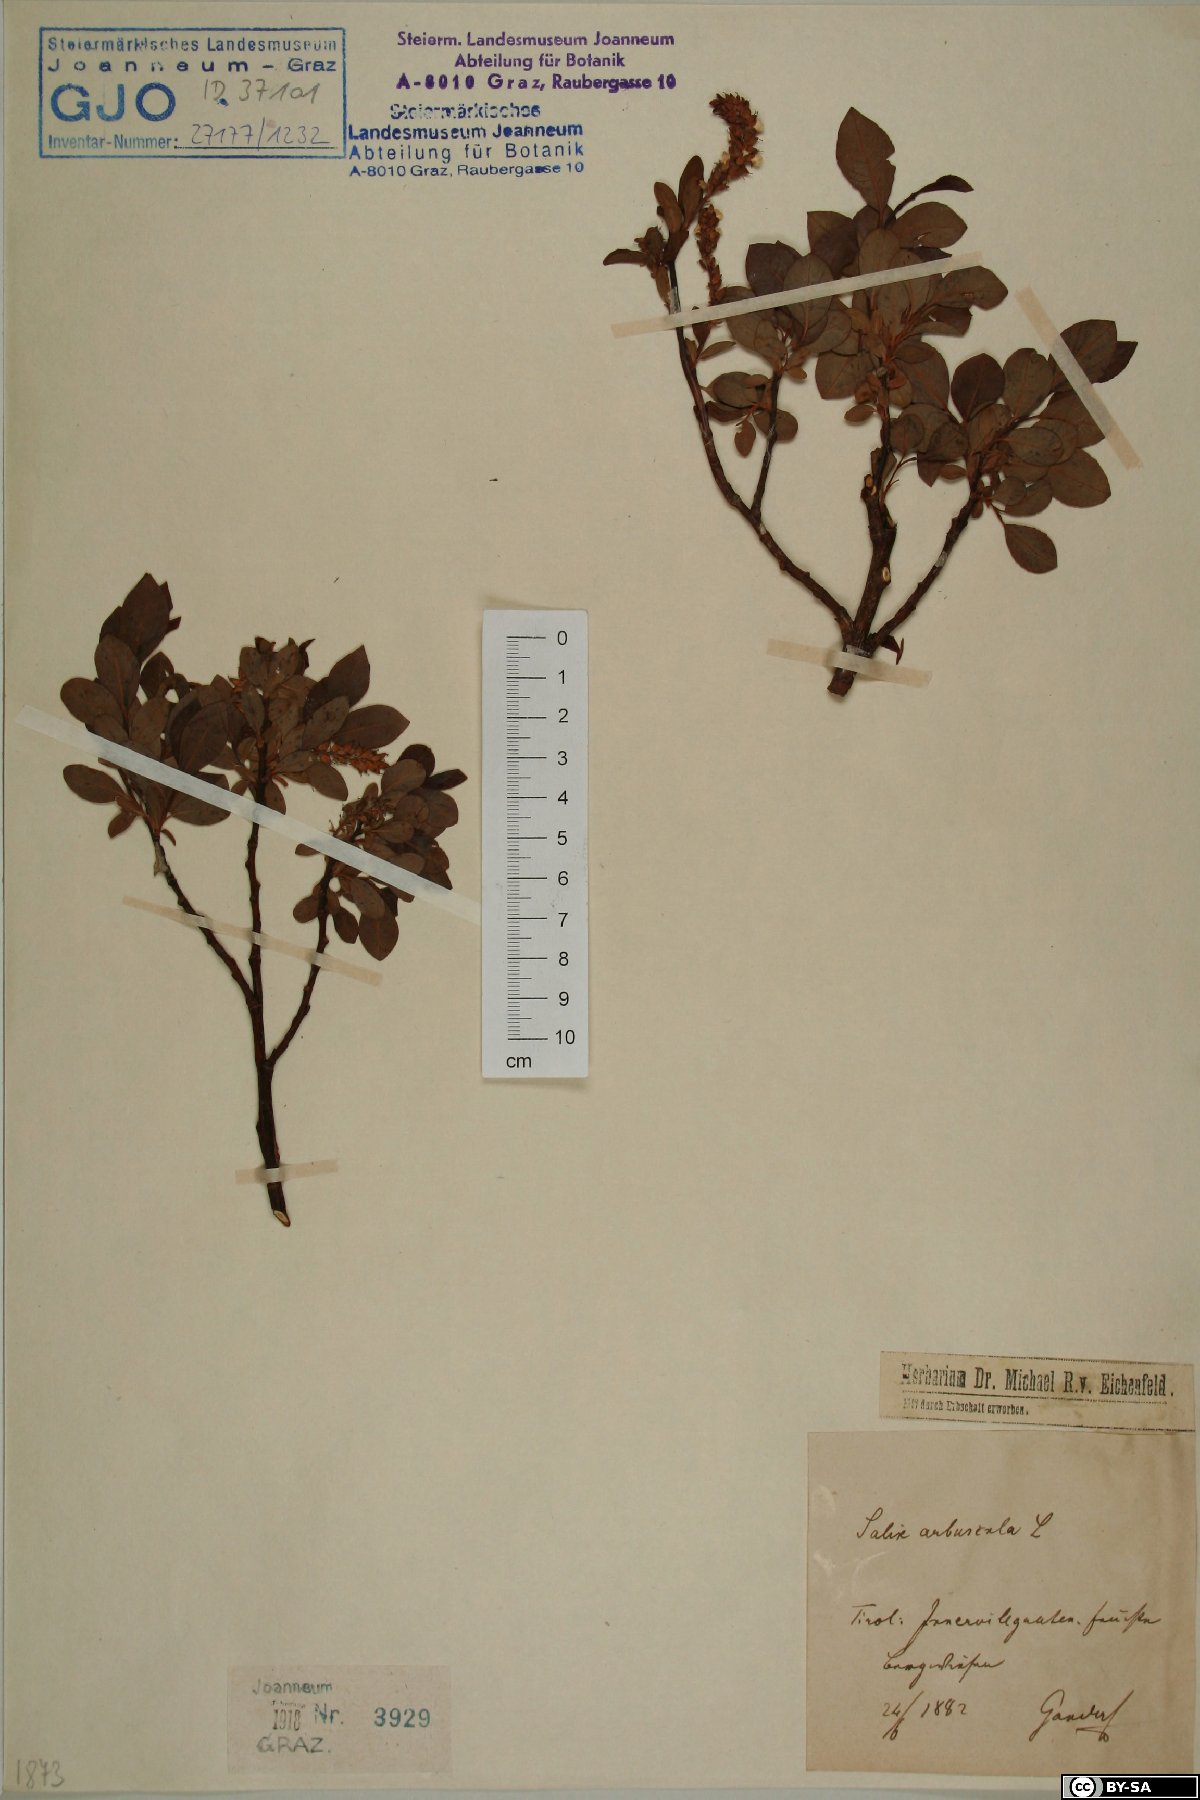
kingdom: Plantae
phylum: Tracheophyta
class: Magnoliopsida
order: Malpighiales
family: Salicaceae
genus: Salix
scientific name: Salix arbuscula
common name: Mountain willow
